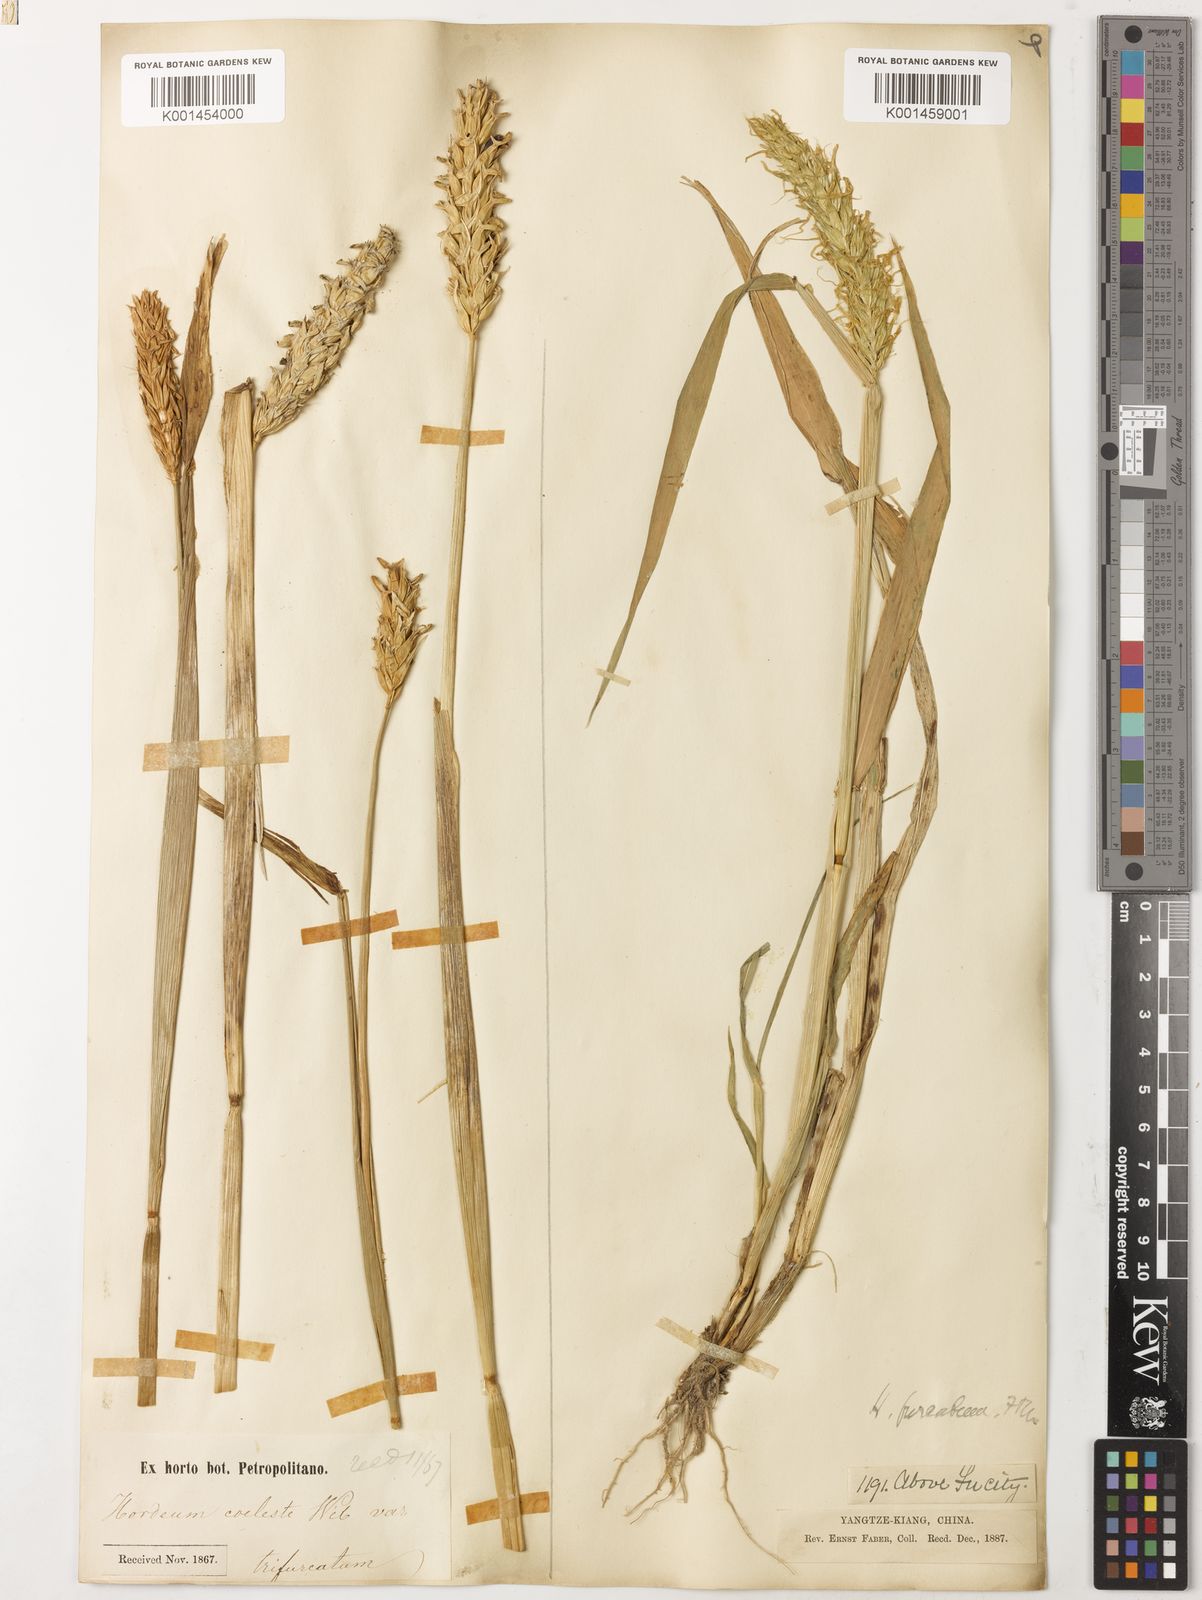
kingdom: Plantae
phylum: Tracheophyta
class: Liliopsida
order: Poales
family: Poaceae
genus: Hordeum
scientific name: Hordeum vulgare
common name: Common barley
